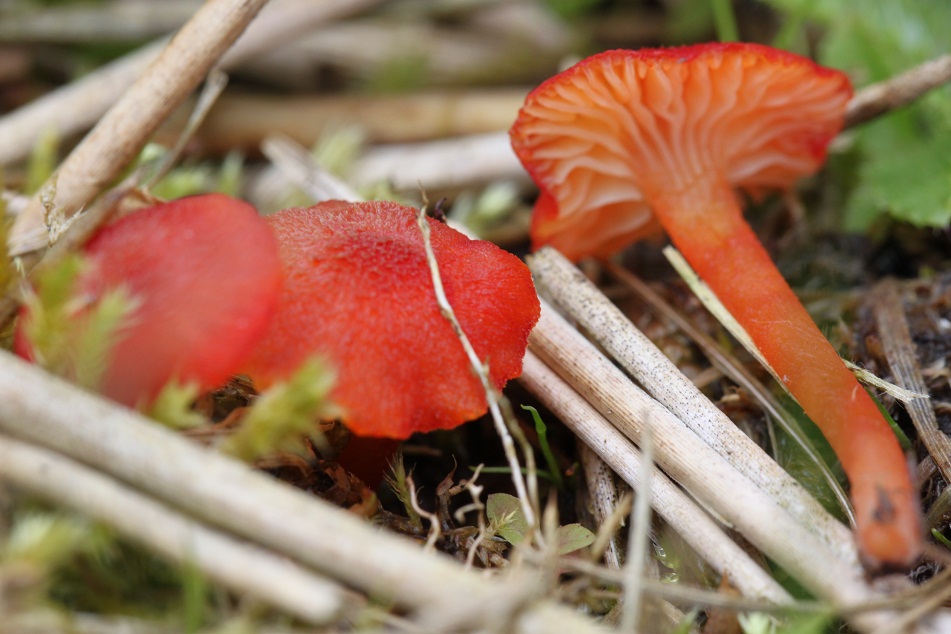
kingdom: Fungi
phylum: Basidiomycota
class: Agaricomycetes
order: Agaricales
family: Hygrophoraceae
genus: Hygrocybe
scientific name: Hygrocybe helobia
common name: hvidløgs-vokshat
